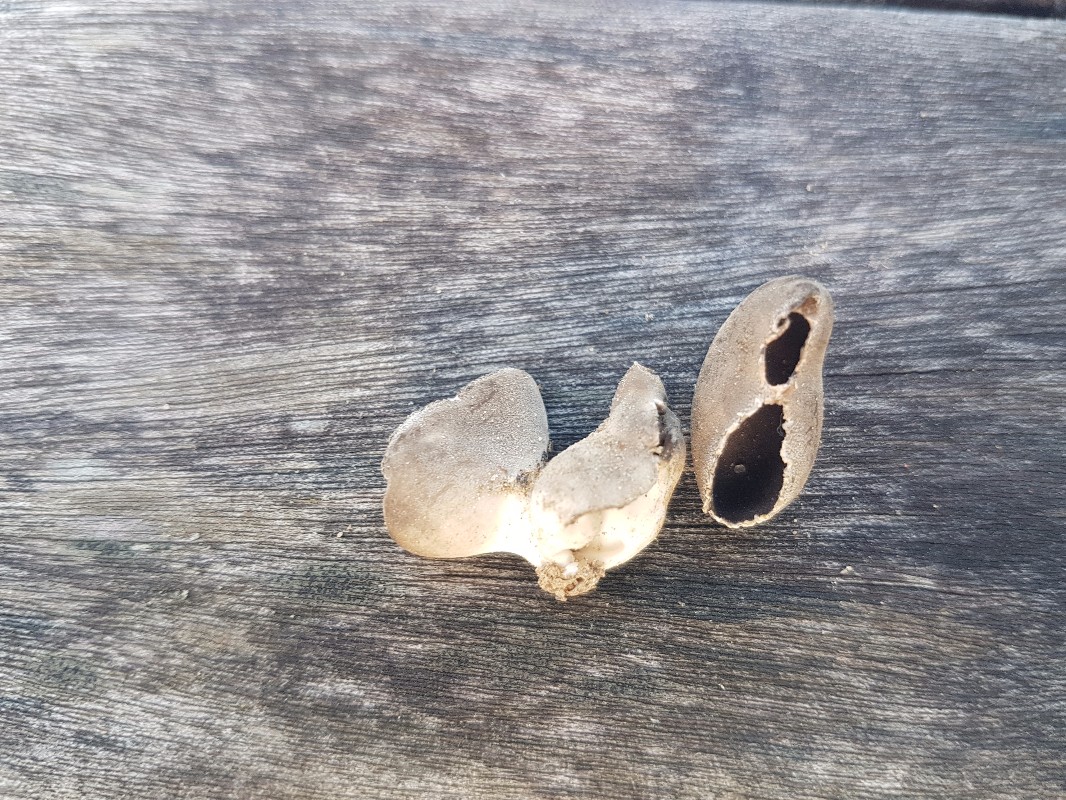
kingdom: Fungi
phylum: Ascomycota
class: Pezizomycetes
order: Pezizales
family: Helvellaceae
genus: Dissingia
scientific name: Dissingia leucomelaena
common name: sorthvid foldhat
